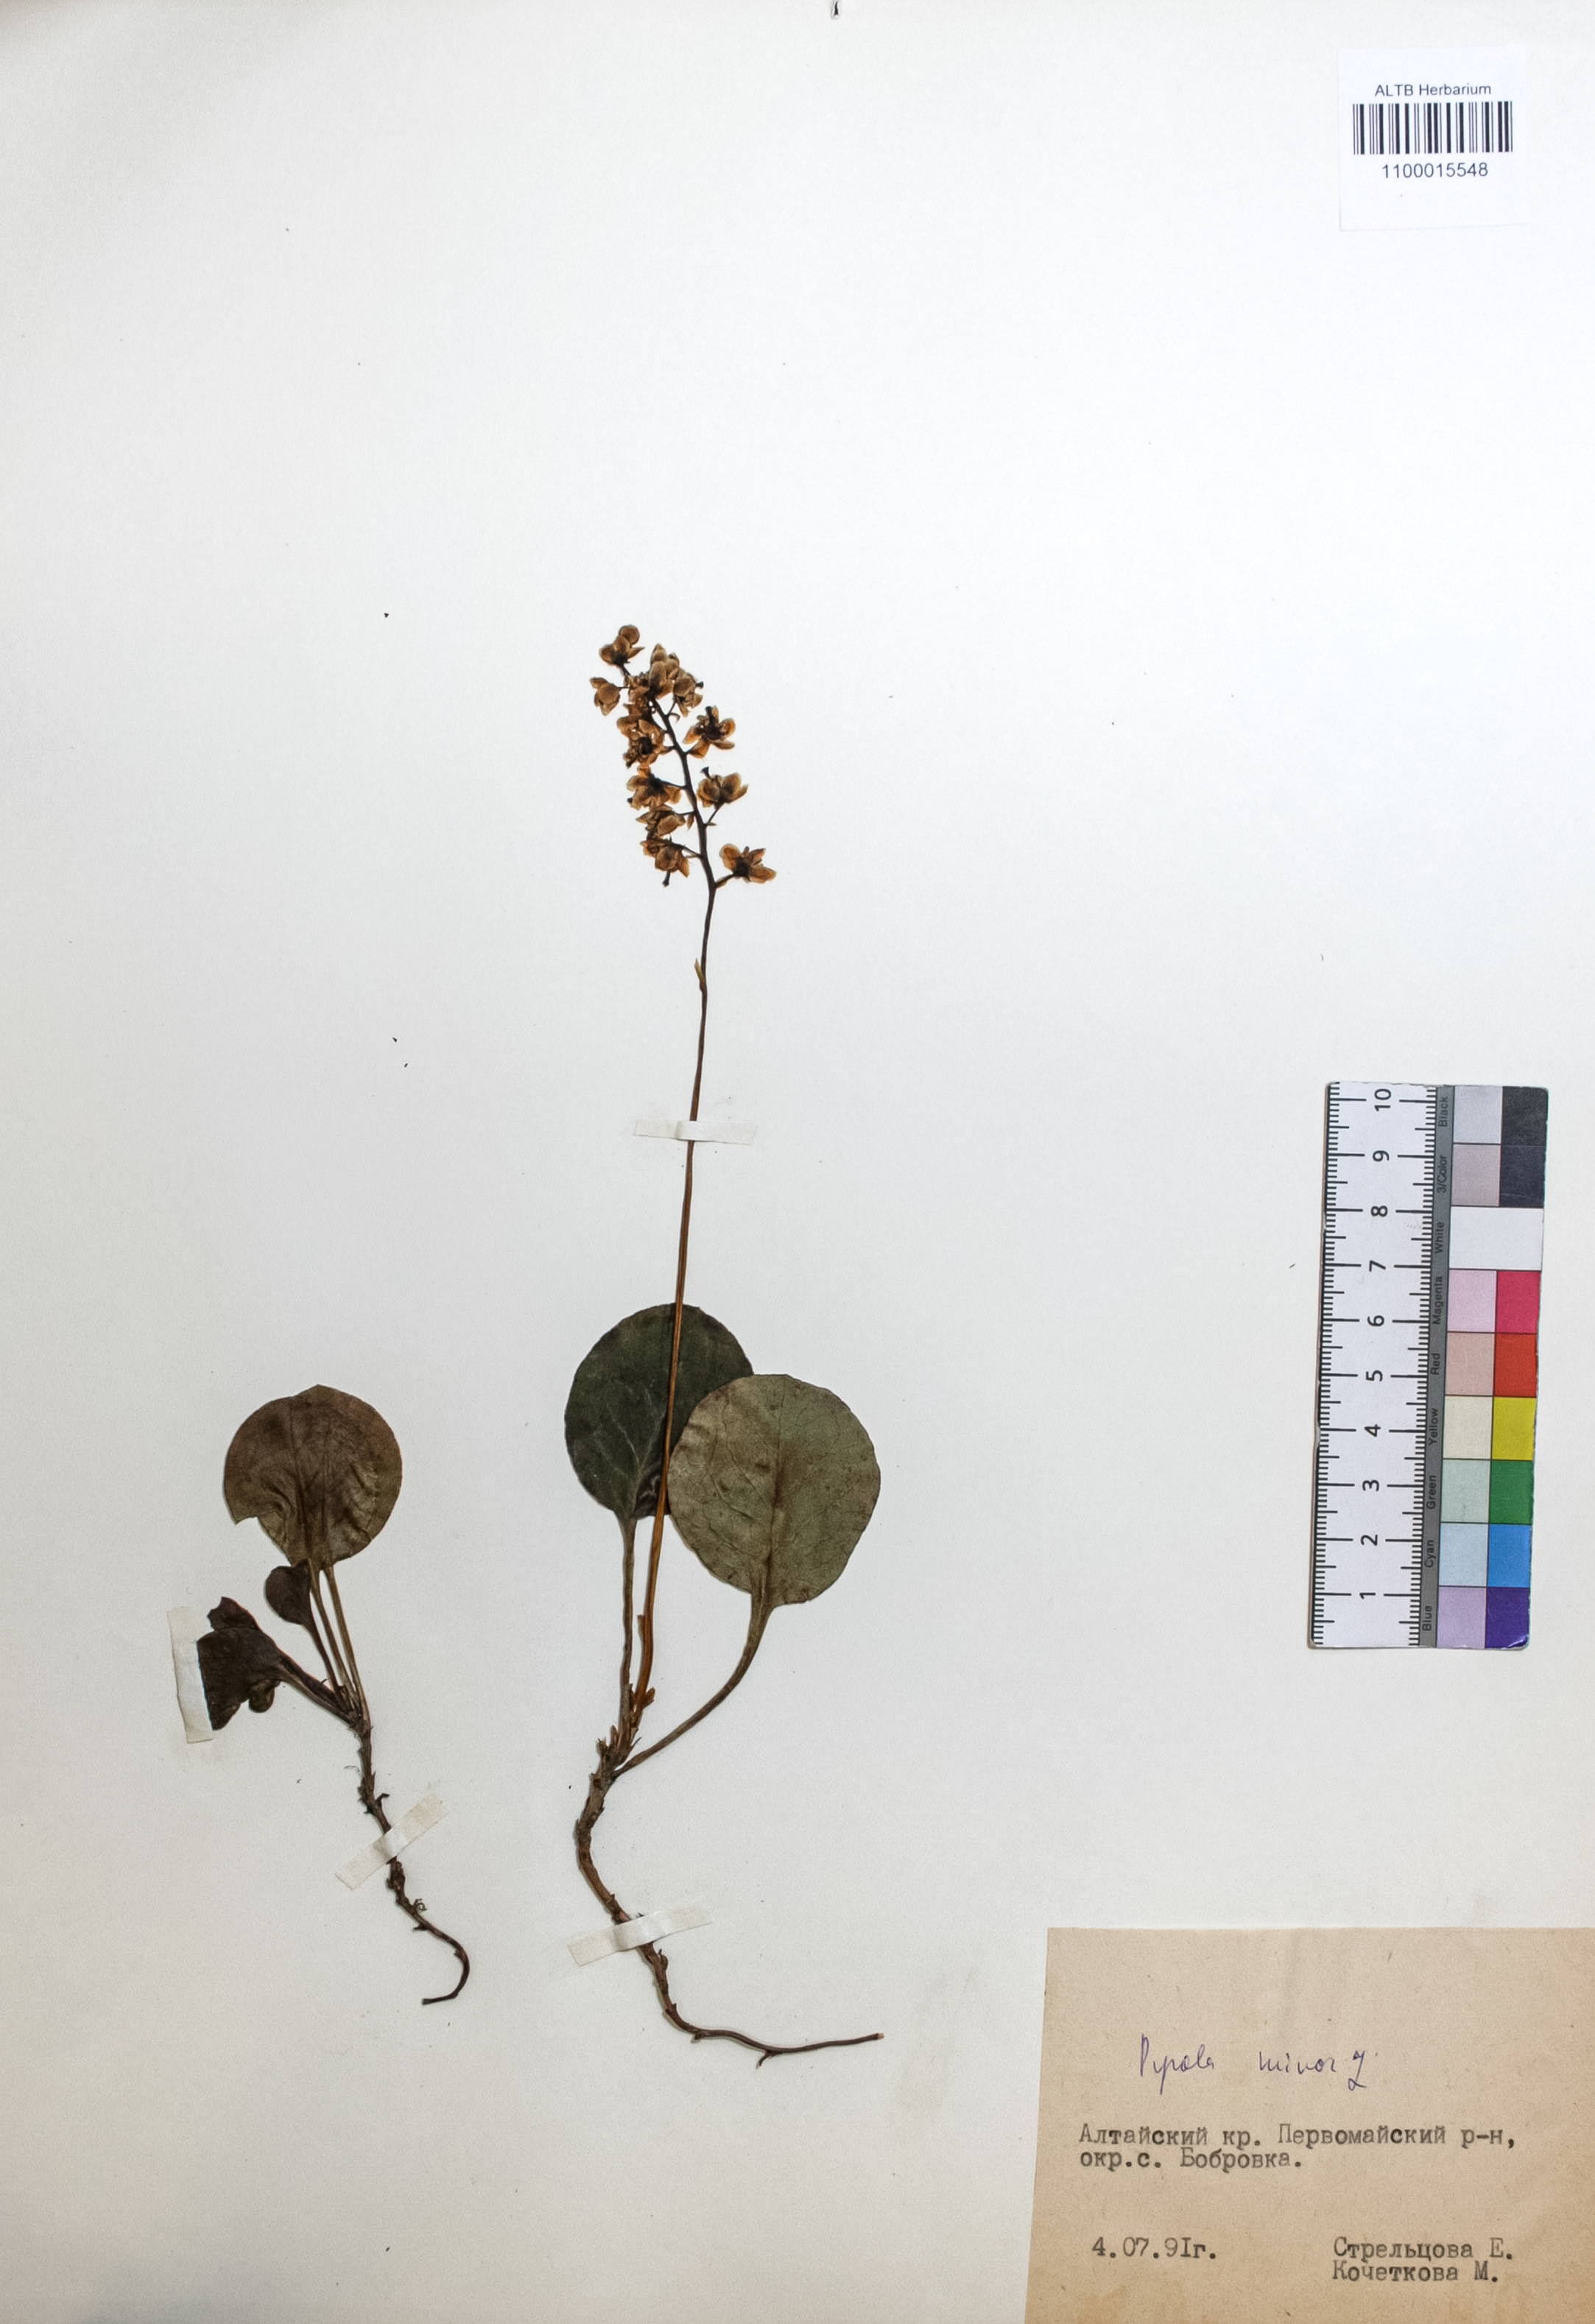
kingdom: Plantae
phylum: Tracheophyta
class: Magnoliopsida
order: Ericales
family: Ericaceae
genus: Pyrola
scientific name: Pyrola minor
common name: Common wintergreen
